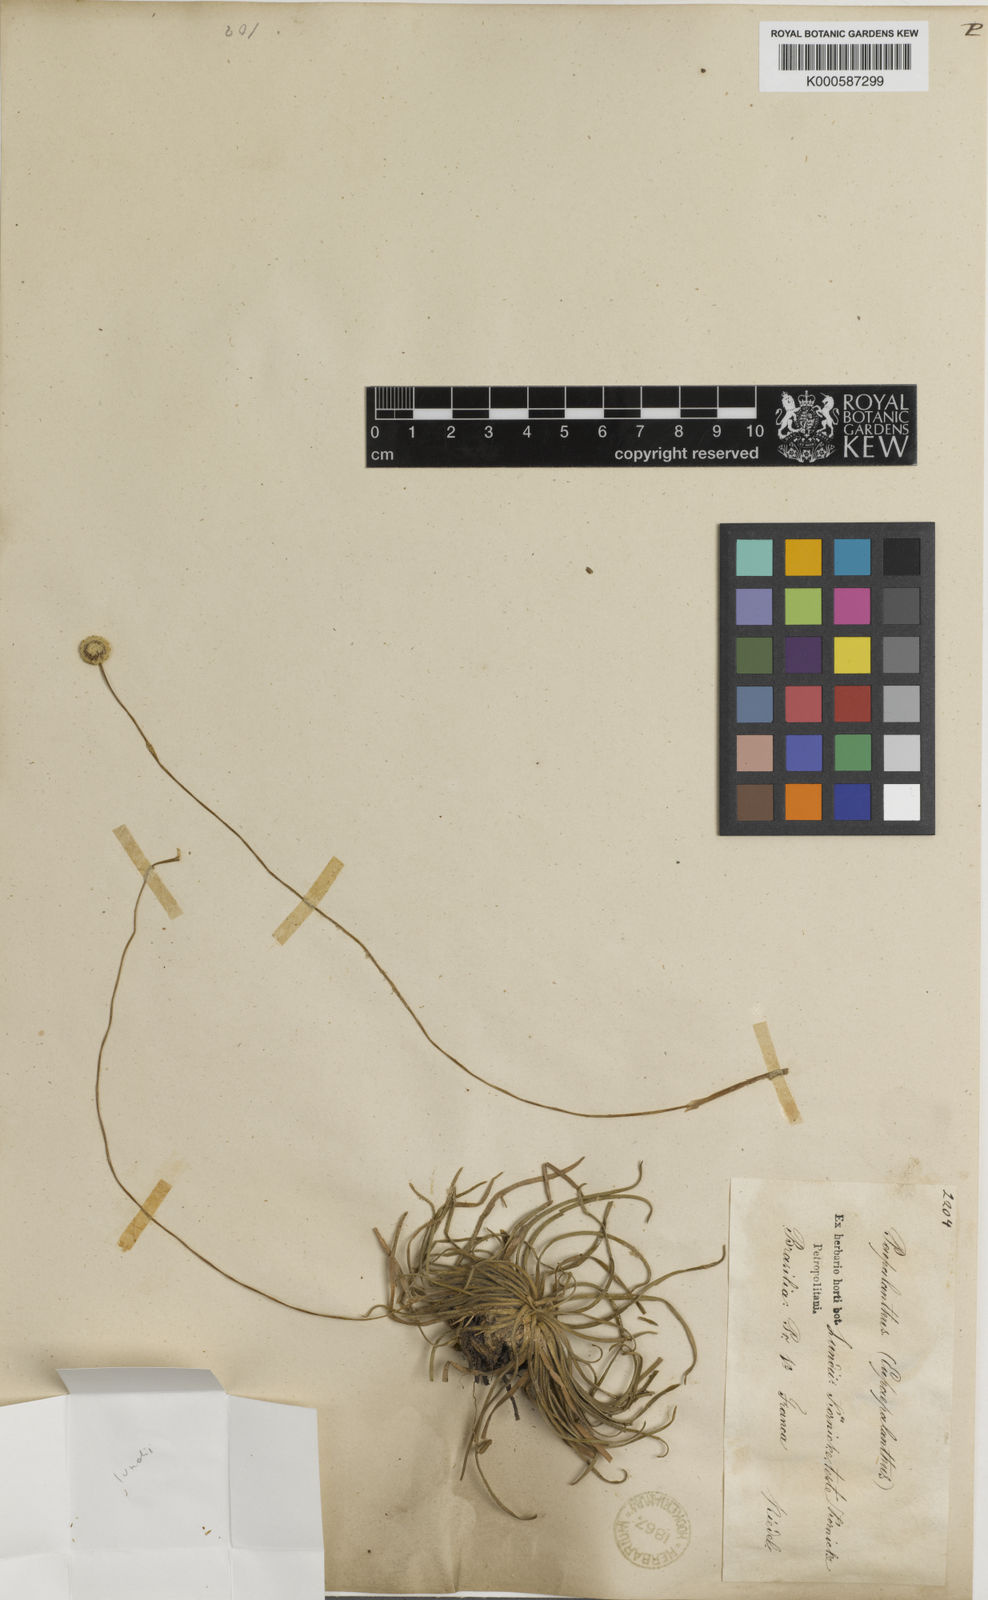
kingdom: Plantae
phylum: Tracheophyta
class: Liliopsida
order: Poales
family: Eriocaulaceae
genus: Paepalanthus
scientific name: Paepalanthus
